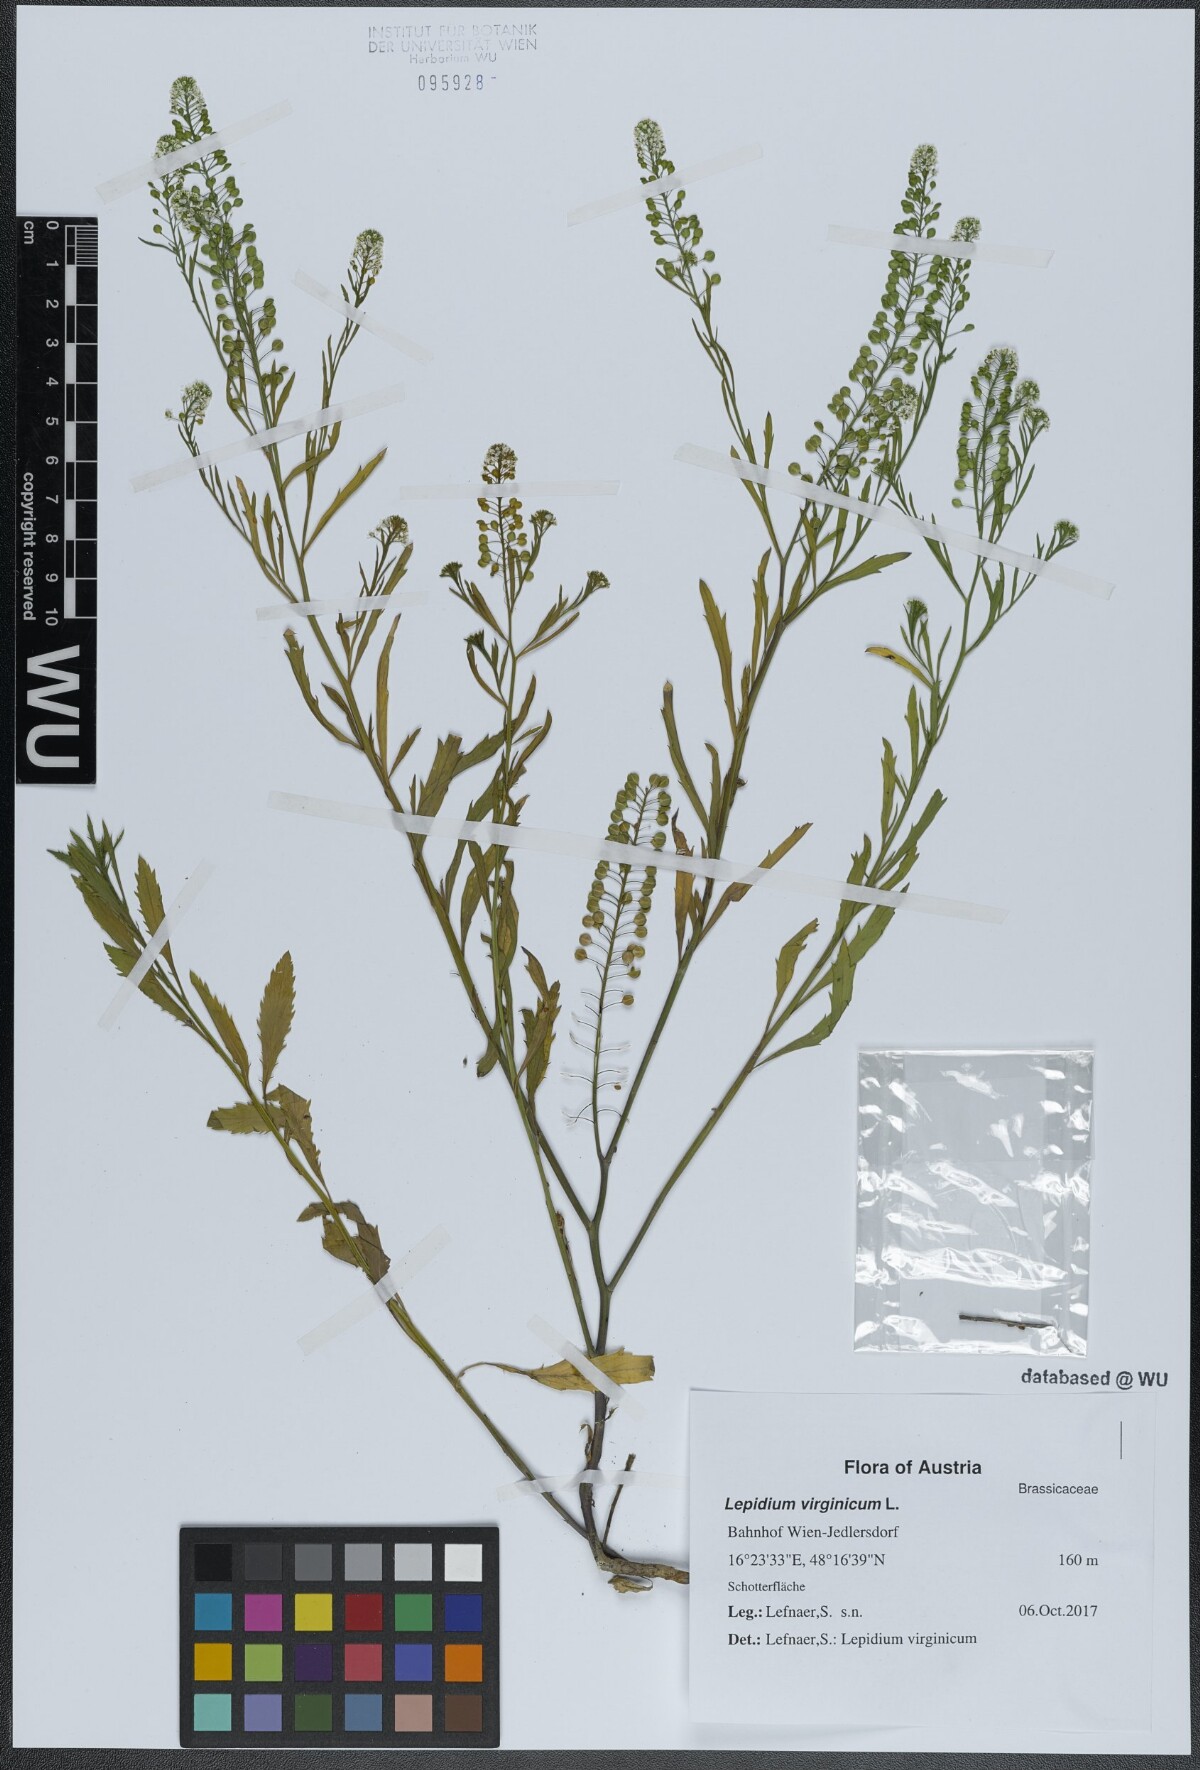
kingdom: Plantae
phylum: Tracheophyta
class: Magnoliopsida
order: Brassicales
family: Brassicaceae
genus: Lepidium
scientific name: Lepidium virginicum
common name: Least pepperwort
